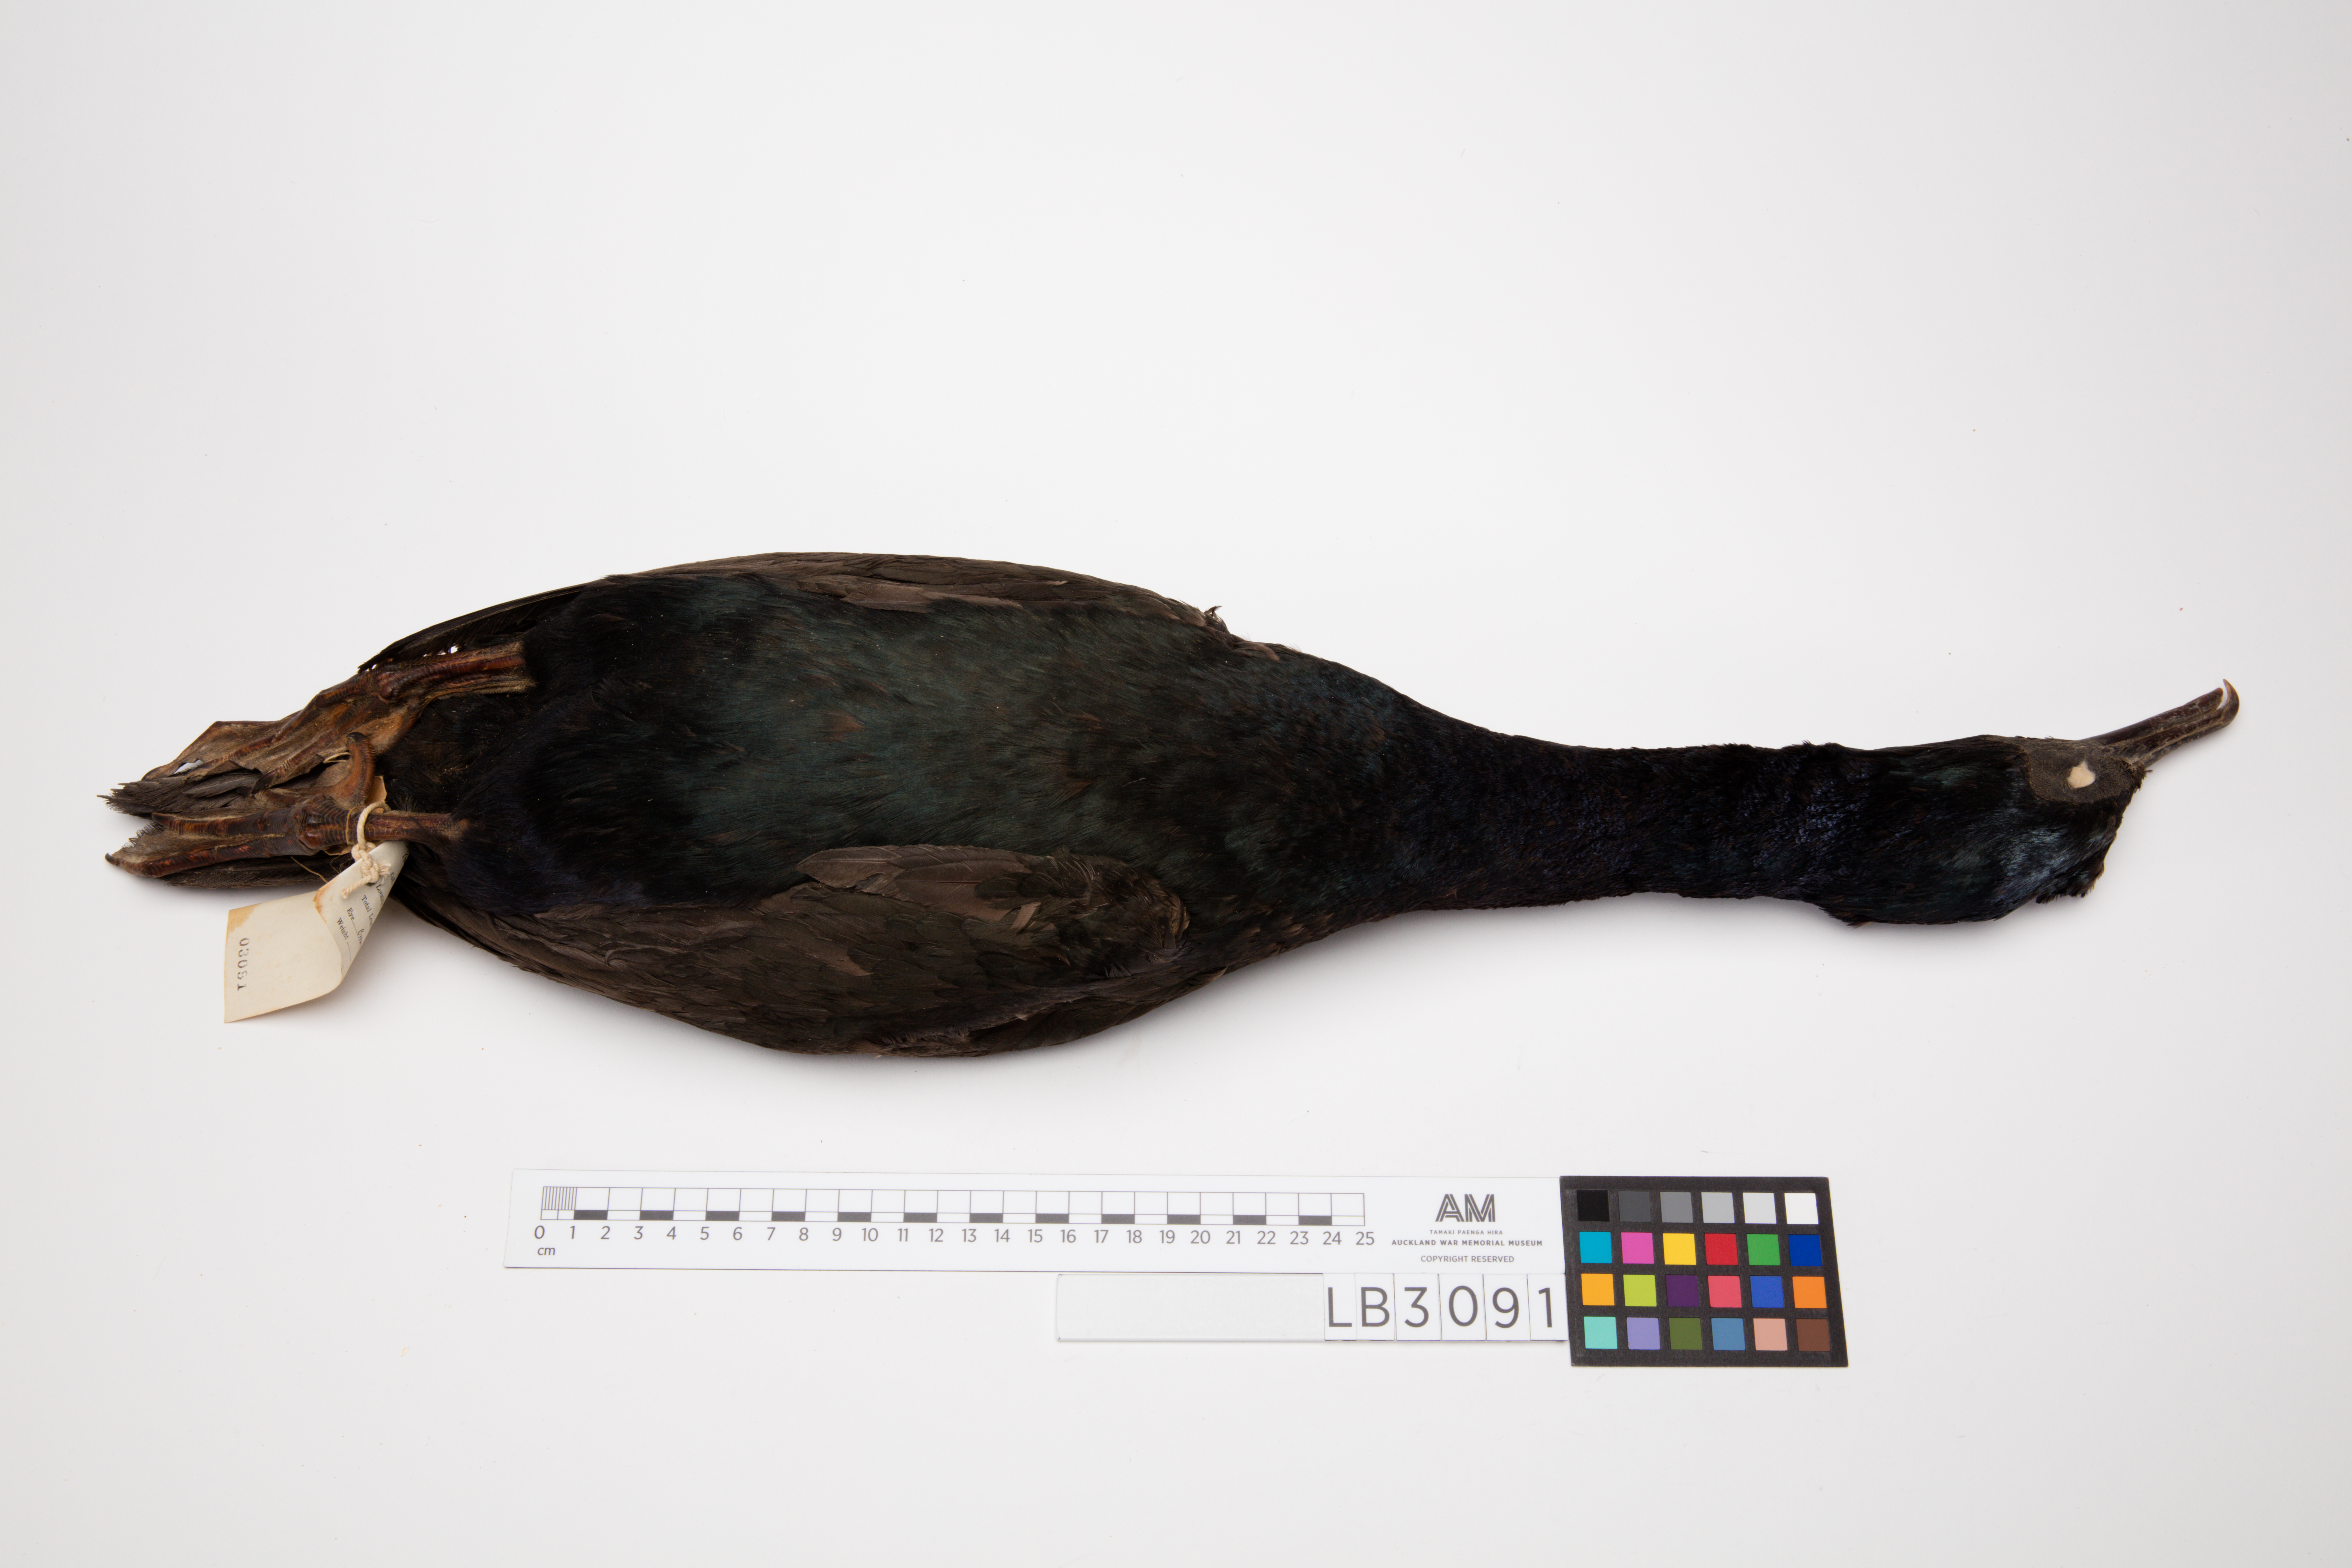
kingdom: Animalia
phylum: Chordata
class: Aves
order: Suliformes
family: Phalacrocoracidae
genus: Leucocarbo
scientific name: Leucocarbo chalconotus
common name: Stewart shag
